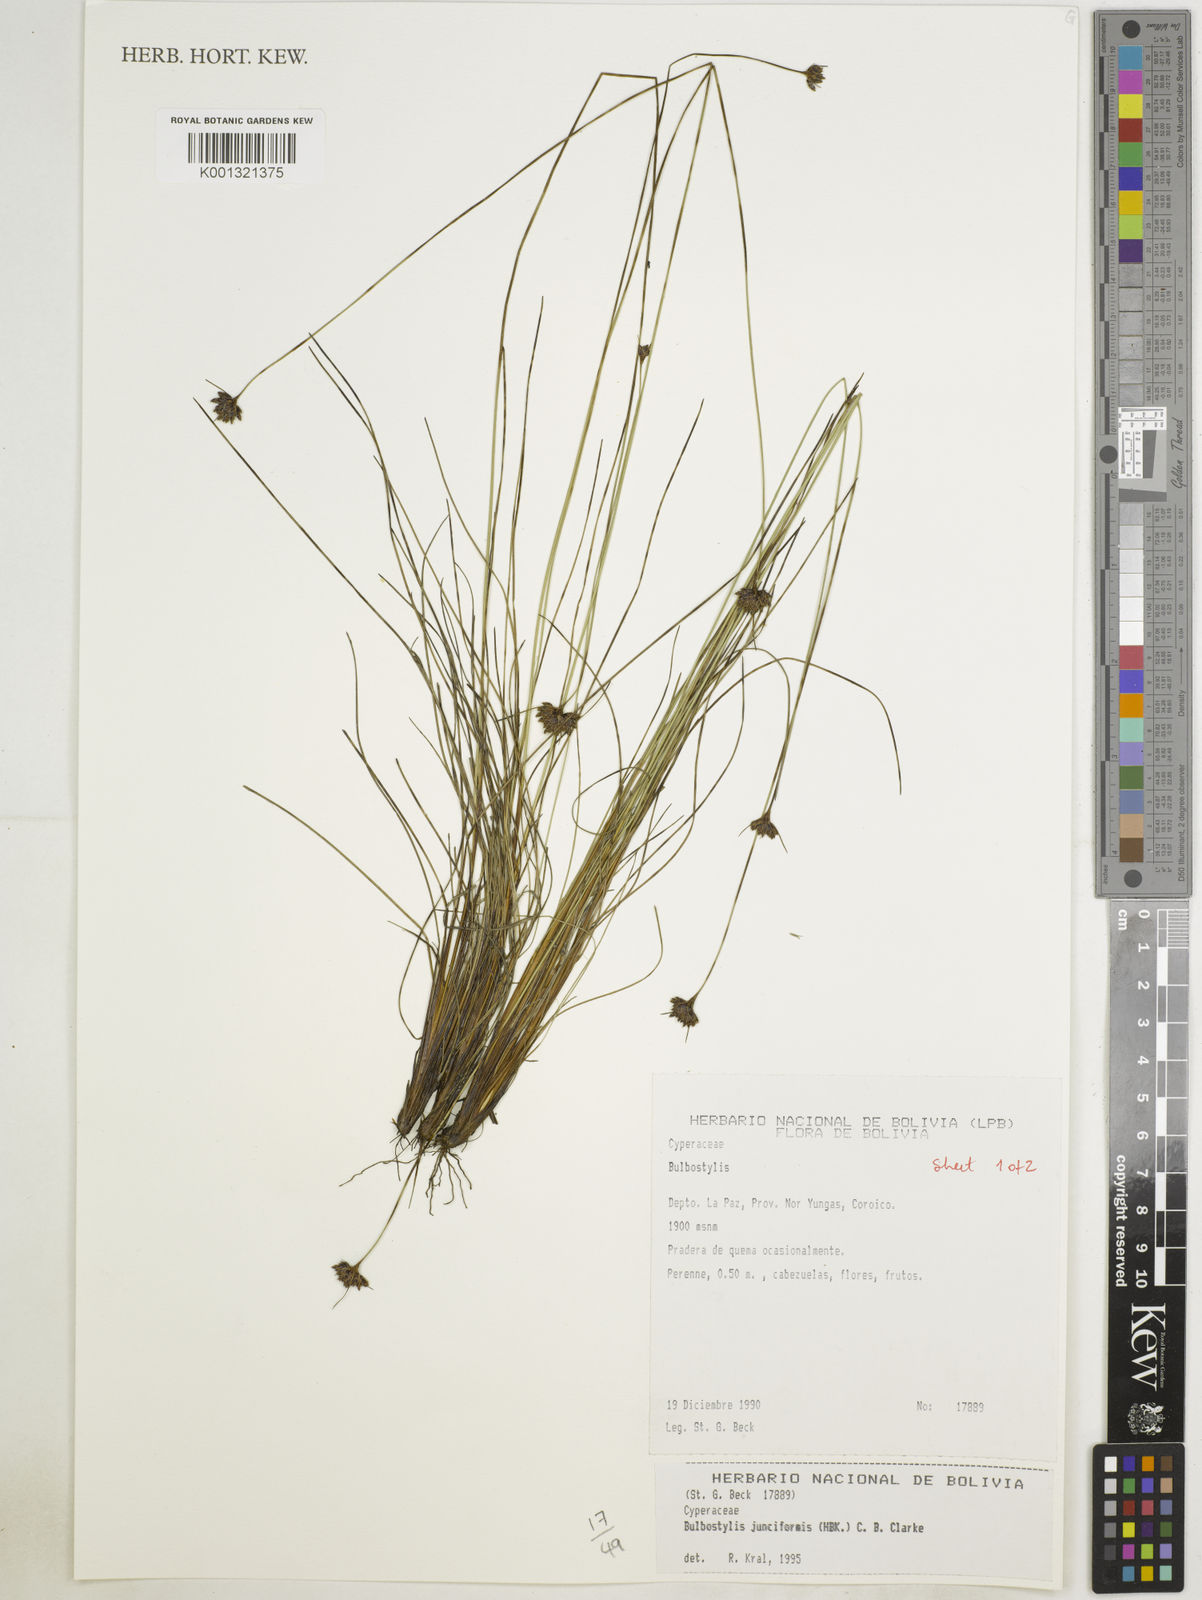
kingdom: Plantae
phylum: Tracheophyta
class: Liliopsida
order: Poales
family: Cyperaceae
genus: Bulbostylis
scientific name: Bulbostylis junciformis
